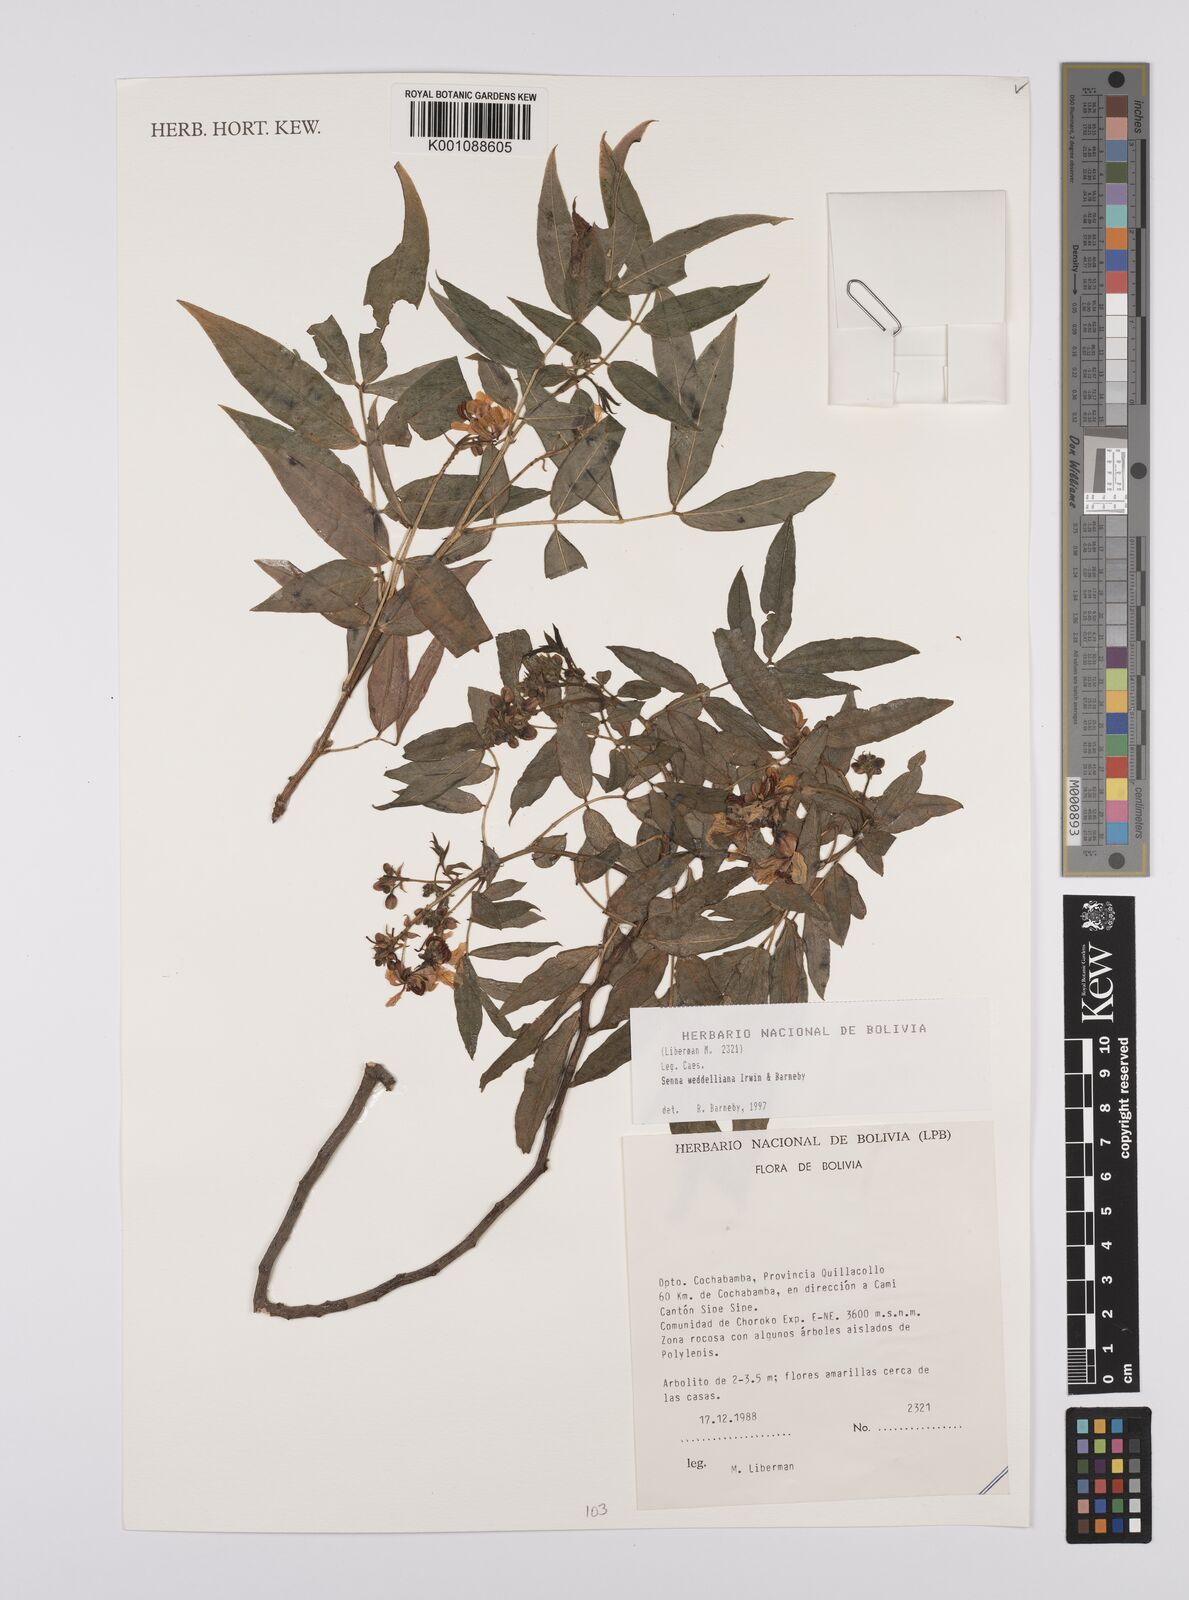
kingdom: Plantae
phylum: Tracheophyta
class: Magnoliopsida
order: Fabales
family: Fabaceae
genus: Senna
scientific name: Senna weddelliana
